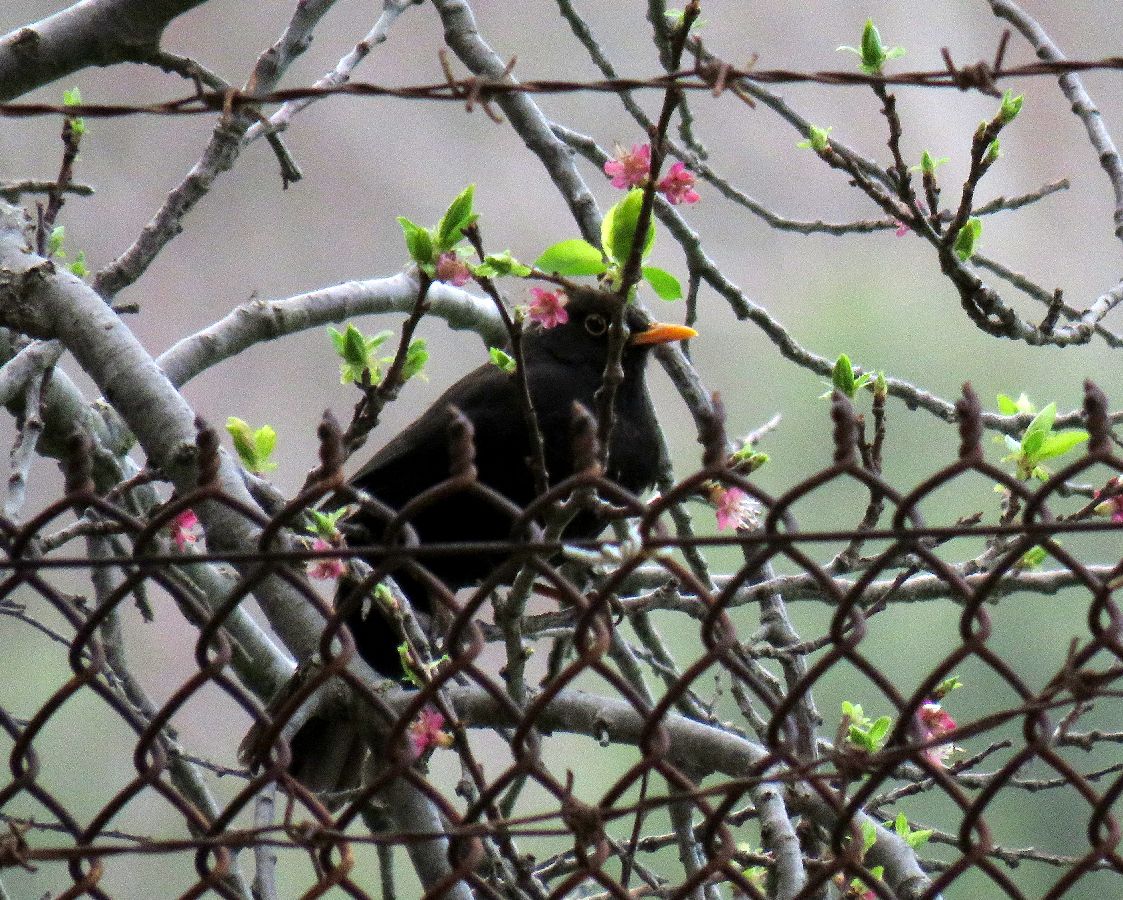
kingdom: Animalia
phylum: Chordata
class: Aves
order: Passeriformes
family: Turdidae
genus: Turdus
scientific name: Turdus merula
